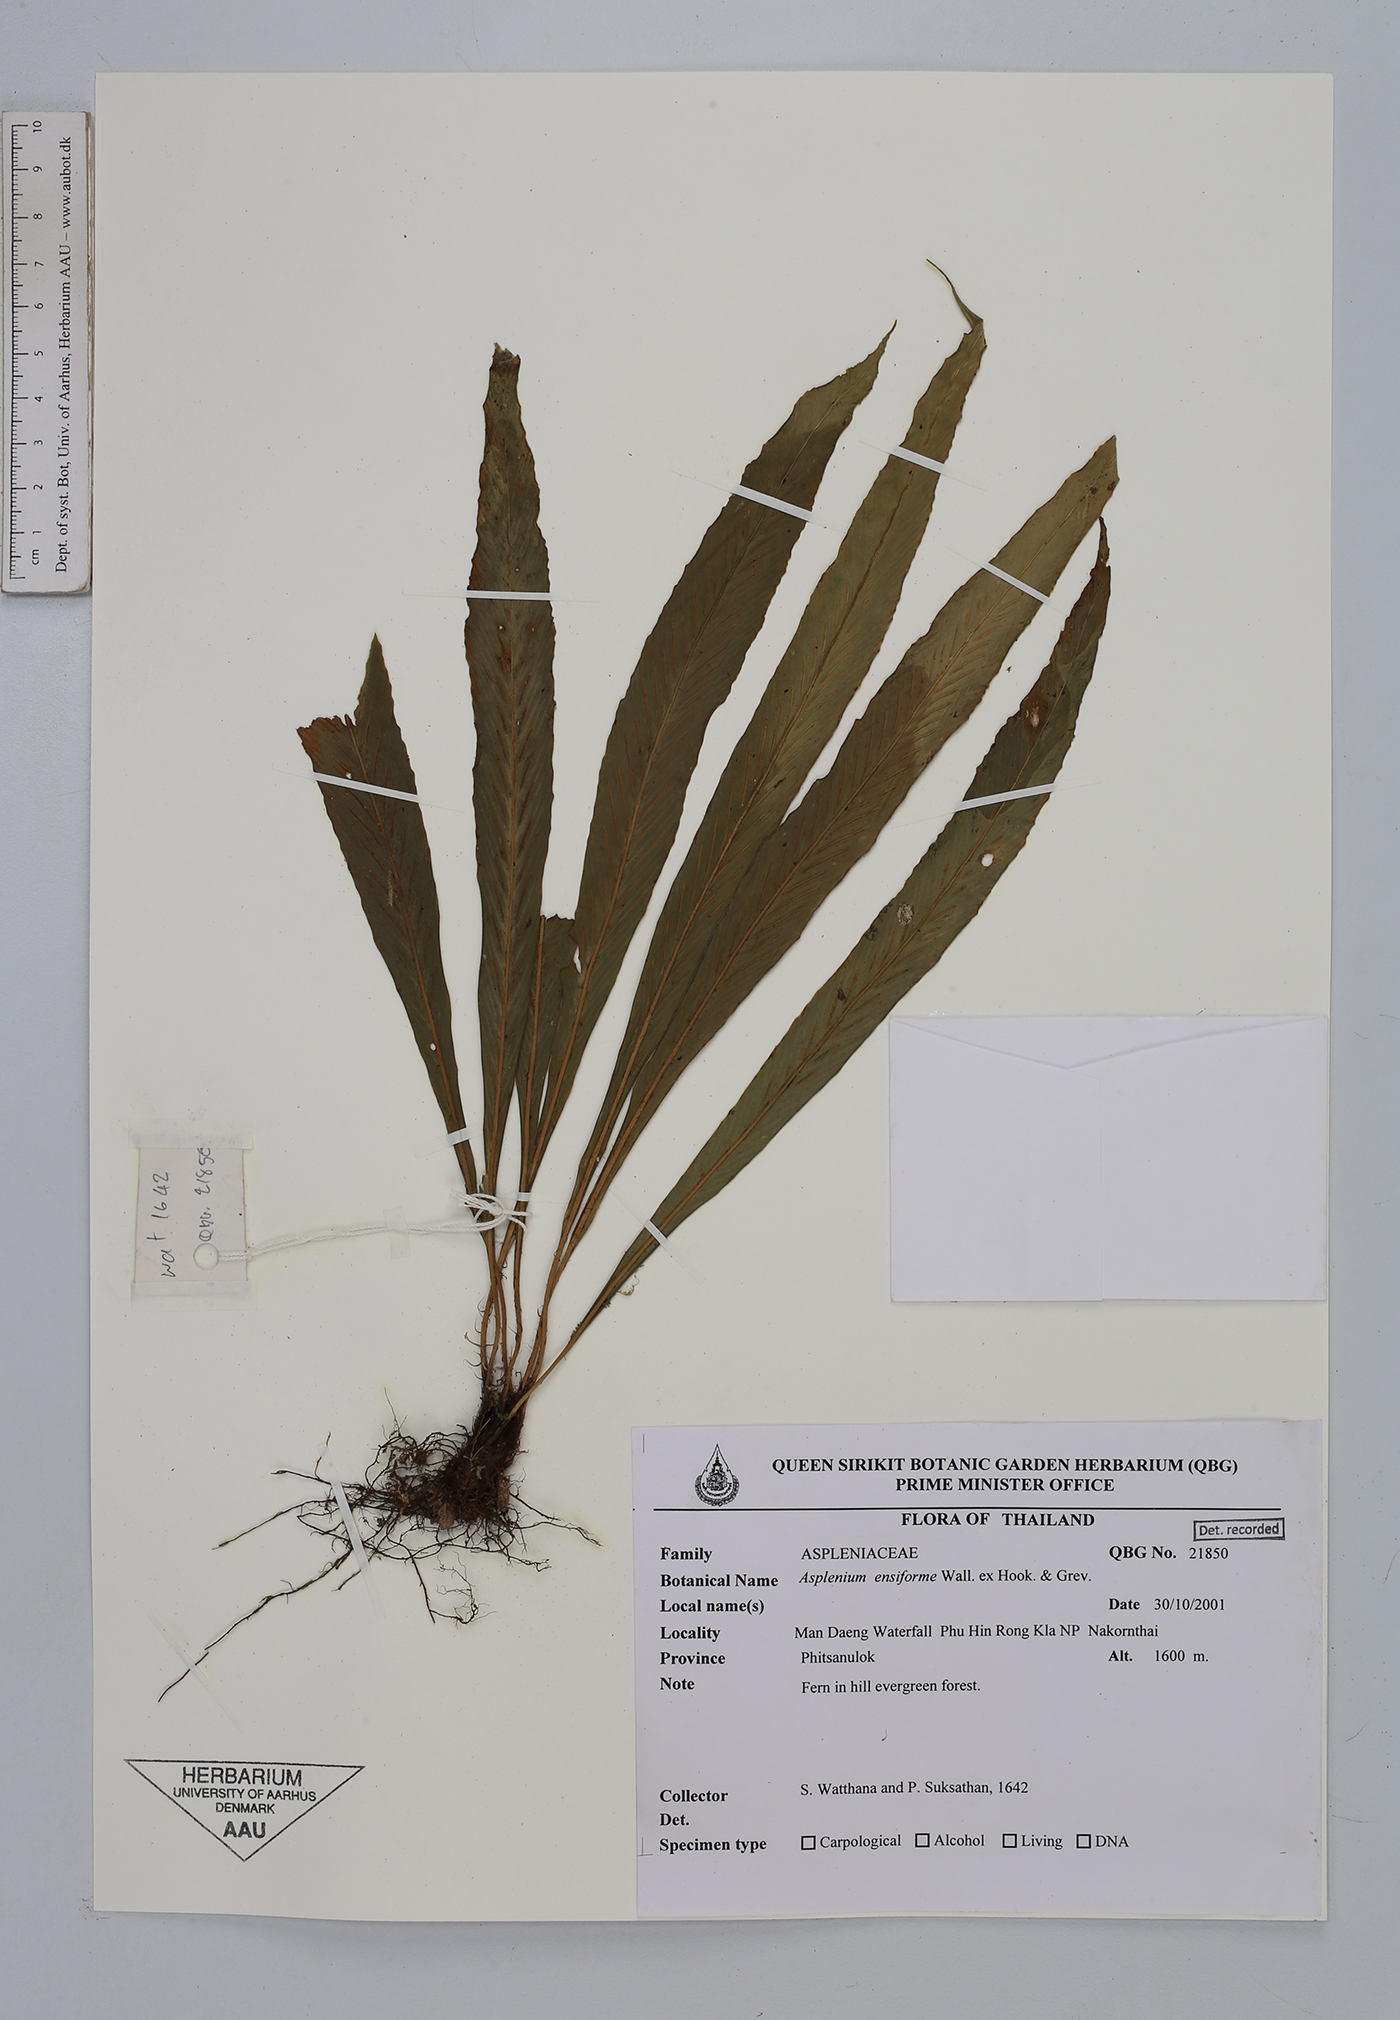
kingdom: Plantae
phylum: Tracheophyta
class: Polypodiopsida
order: Polypodiales
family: Aspleniaceae
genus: Asplenium
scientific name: Asplenium ensiforme
